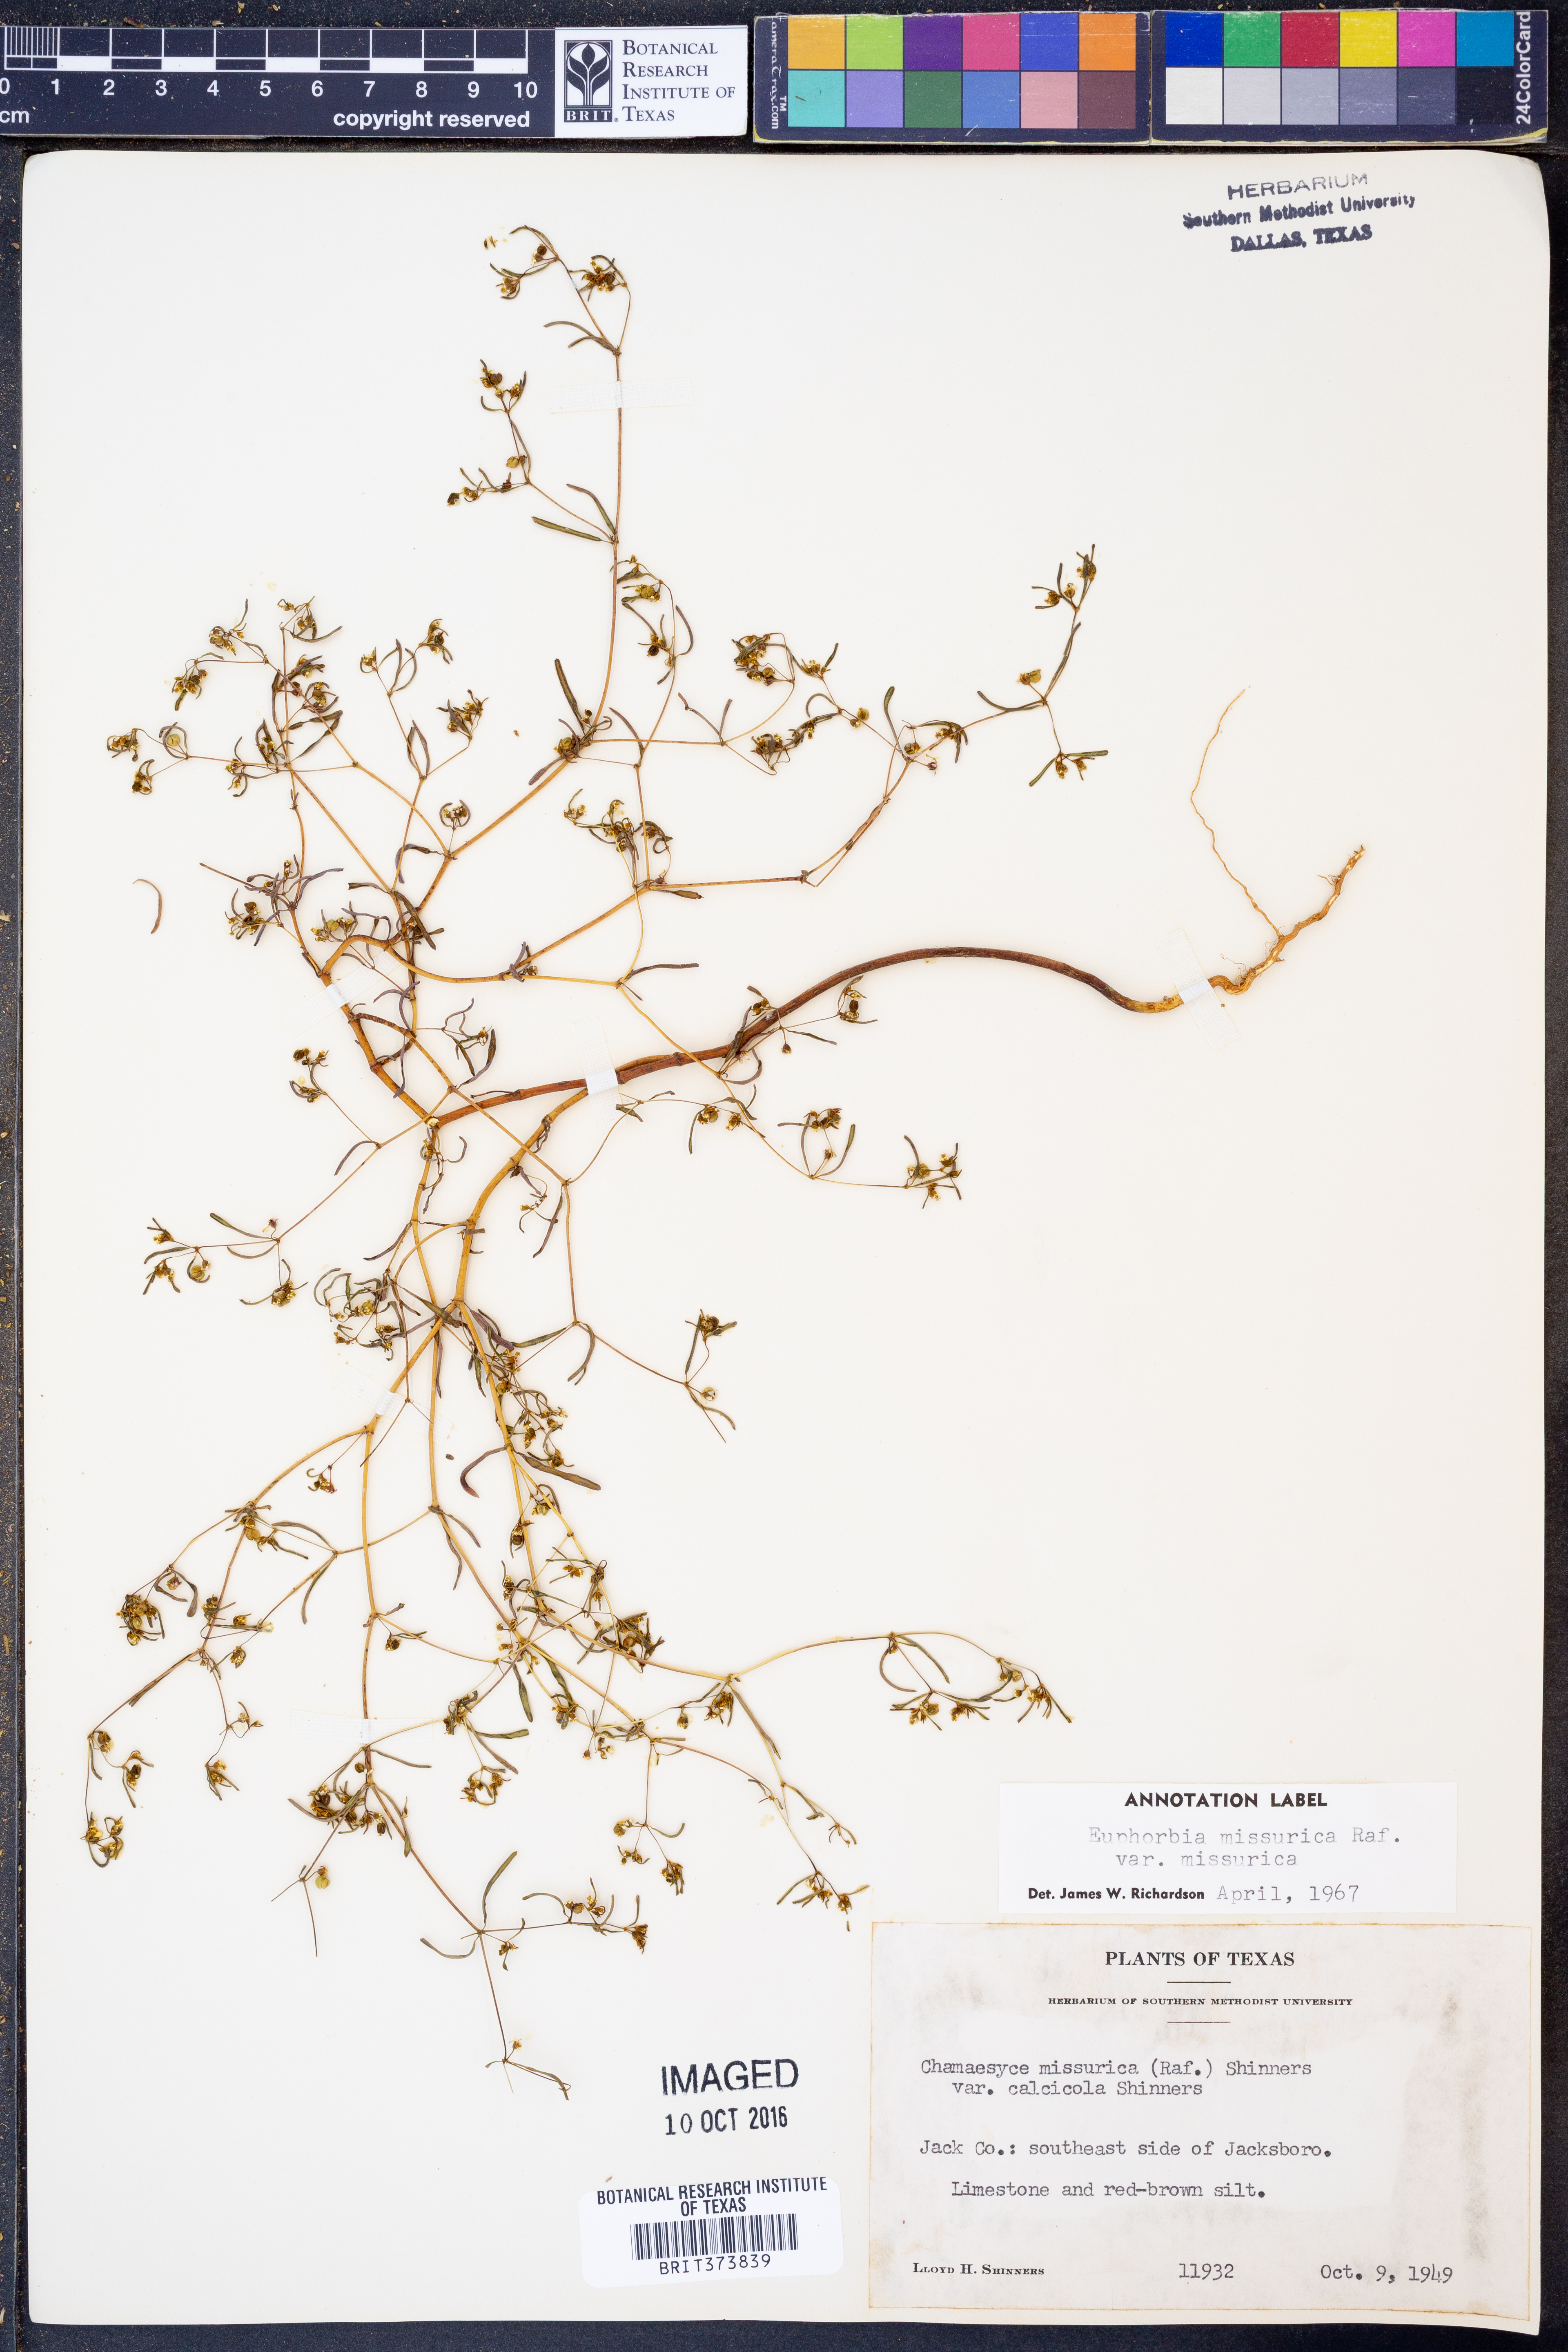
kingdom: Plantae
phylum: Tracheophyta
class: Magnoliopsida
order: Malpighiales
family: Euphorbiaceae
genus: Euphorbia
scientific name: Euphorbia missurica
